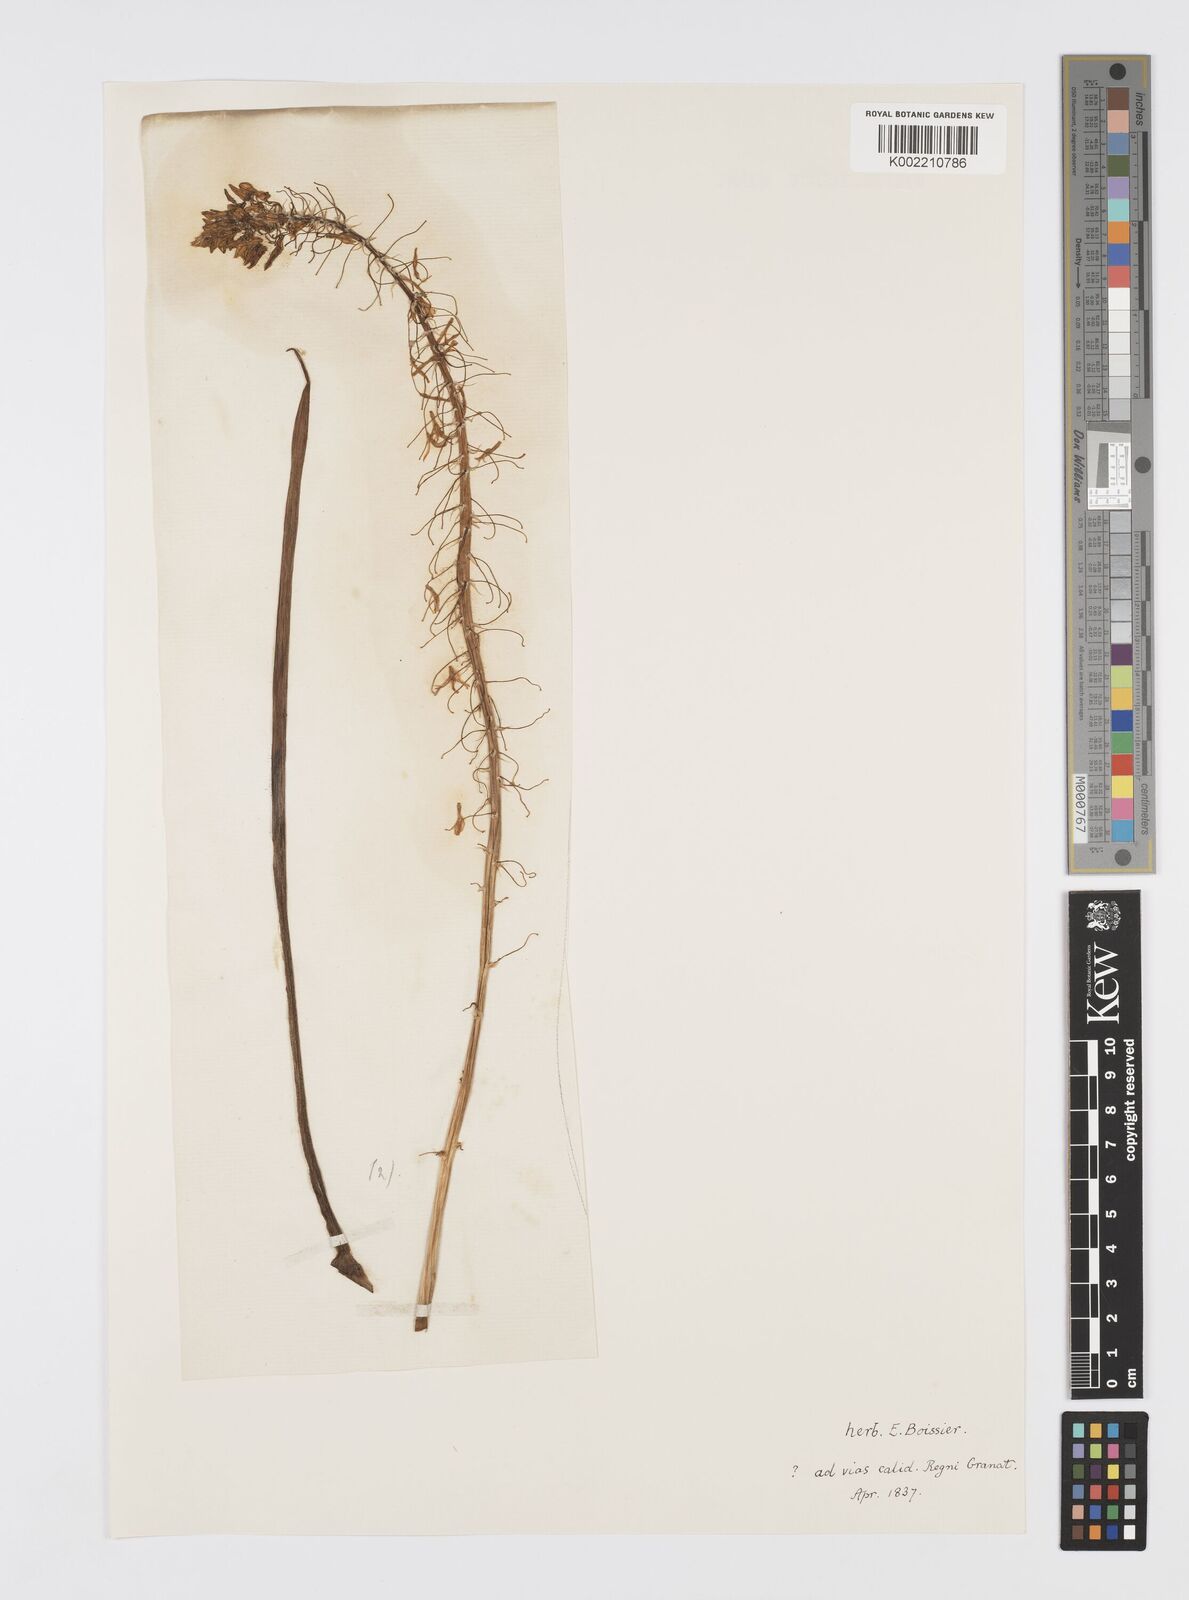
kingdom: Plantae
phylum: Tracheophyta
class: Liliopsida
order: Asparagales
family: Asphodelaceae
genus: Asphodeline
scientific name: Asphodeline
